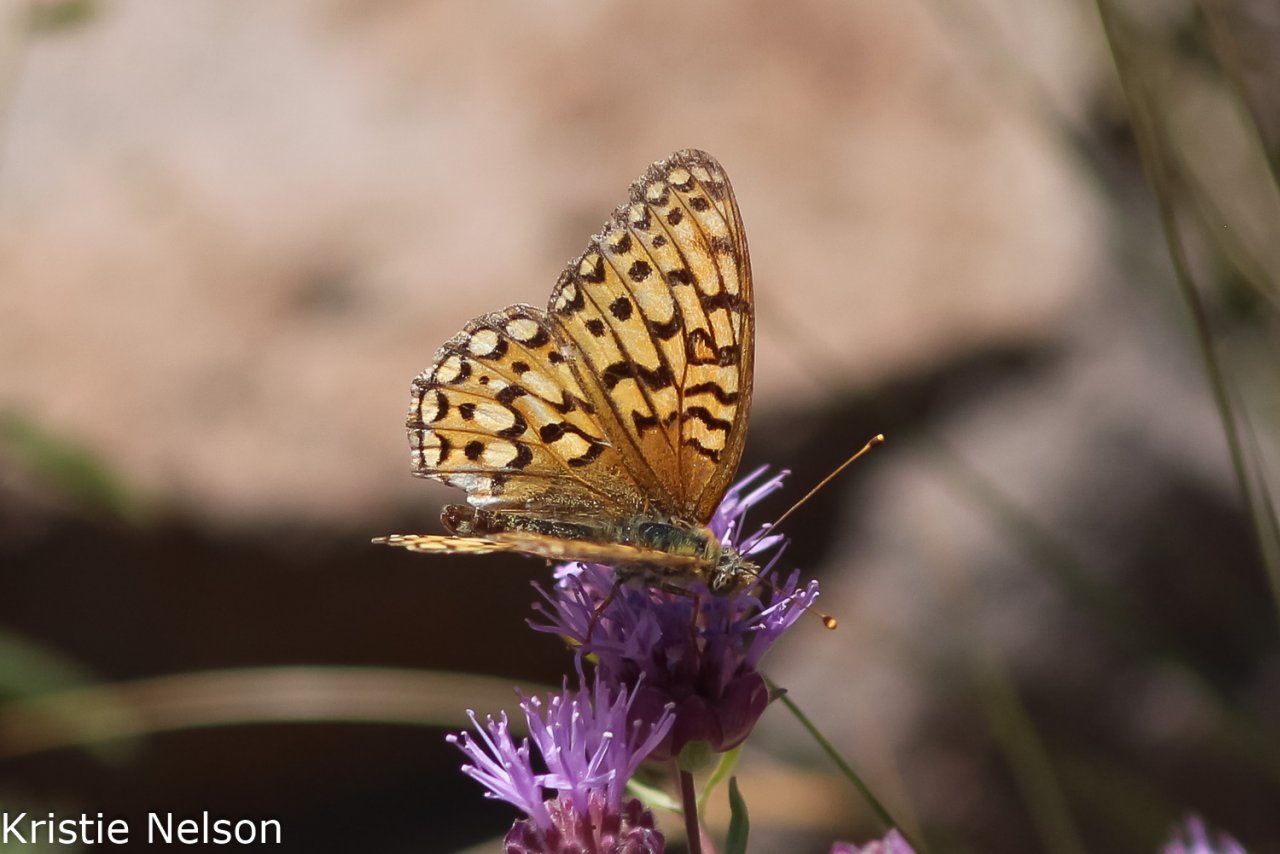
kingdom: Animalia
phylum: Arthropoda
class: Insecta
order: Lepidoptera
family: Nymphalidae
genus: Speyeria
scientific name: Speyeria callippe
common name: Callippe Fritillary
